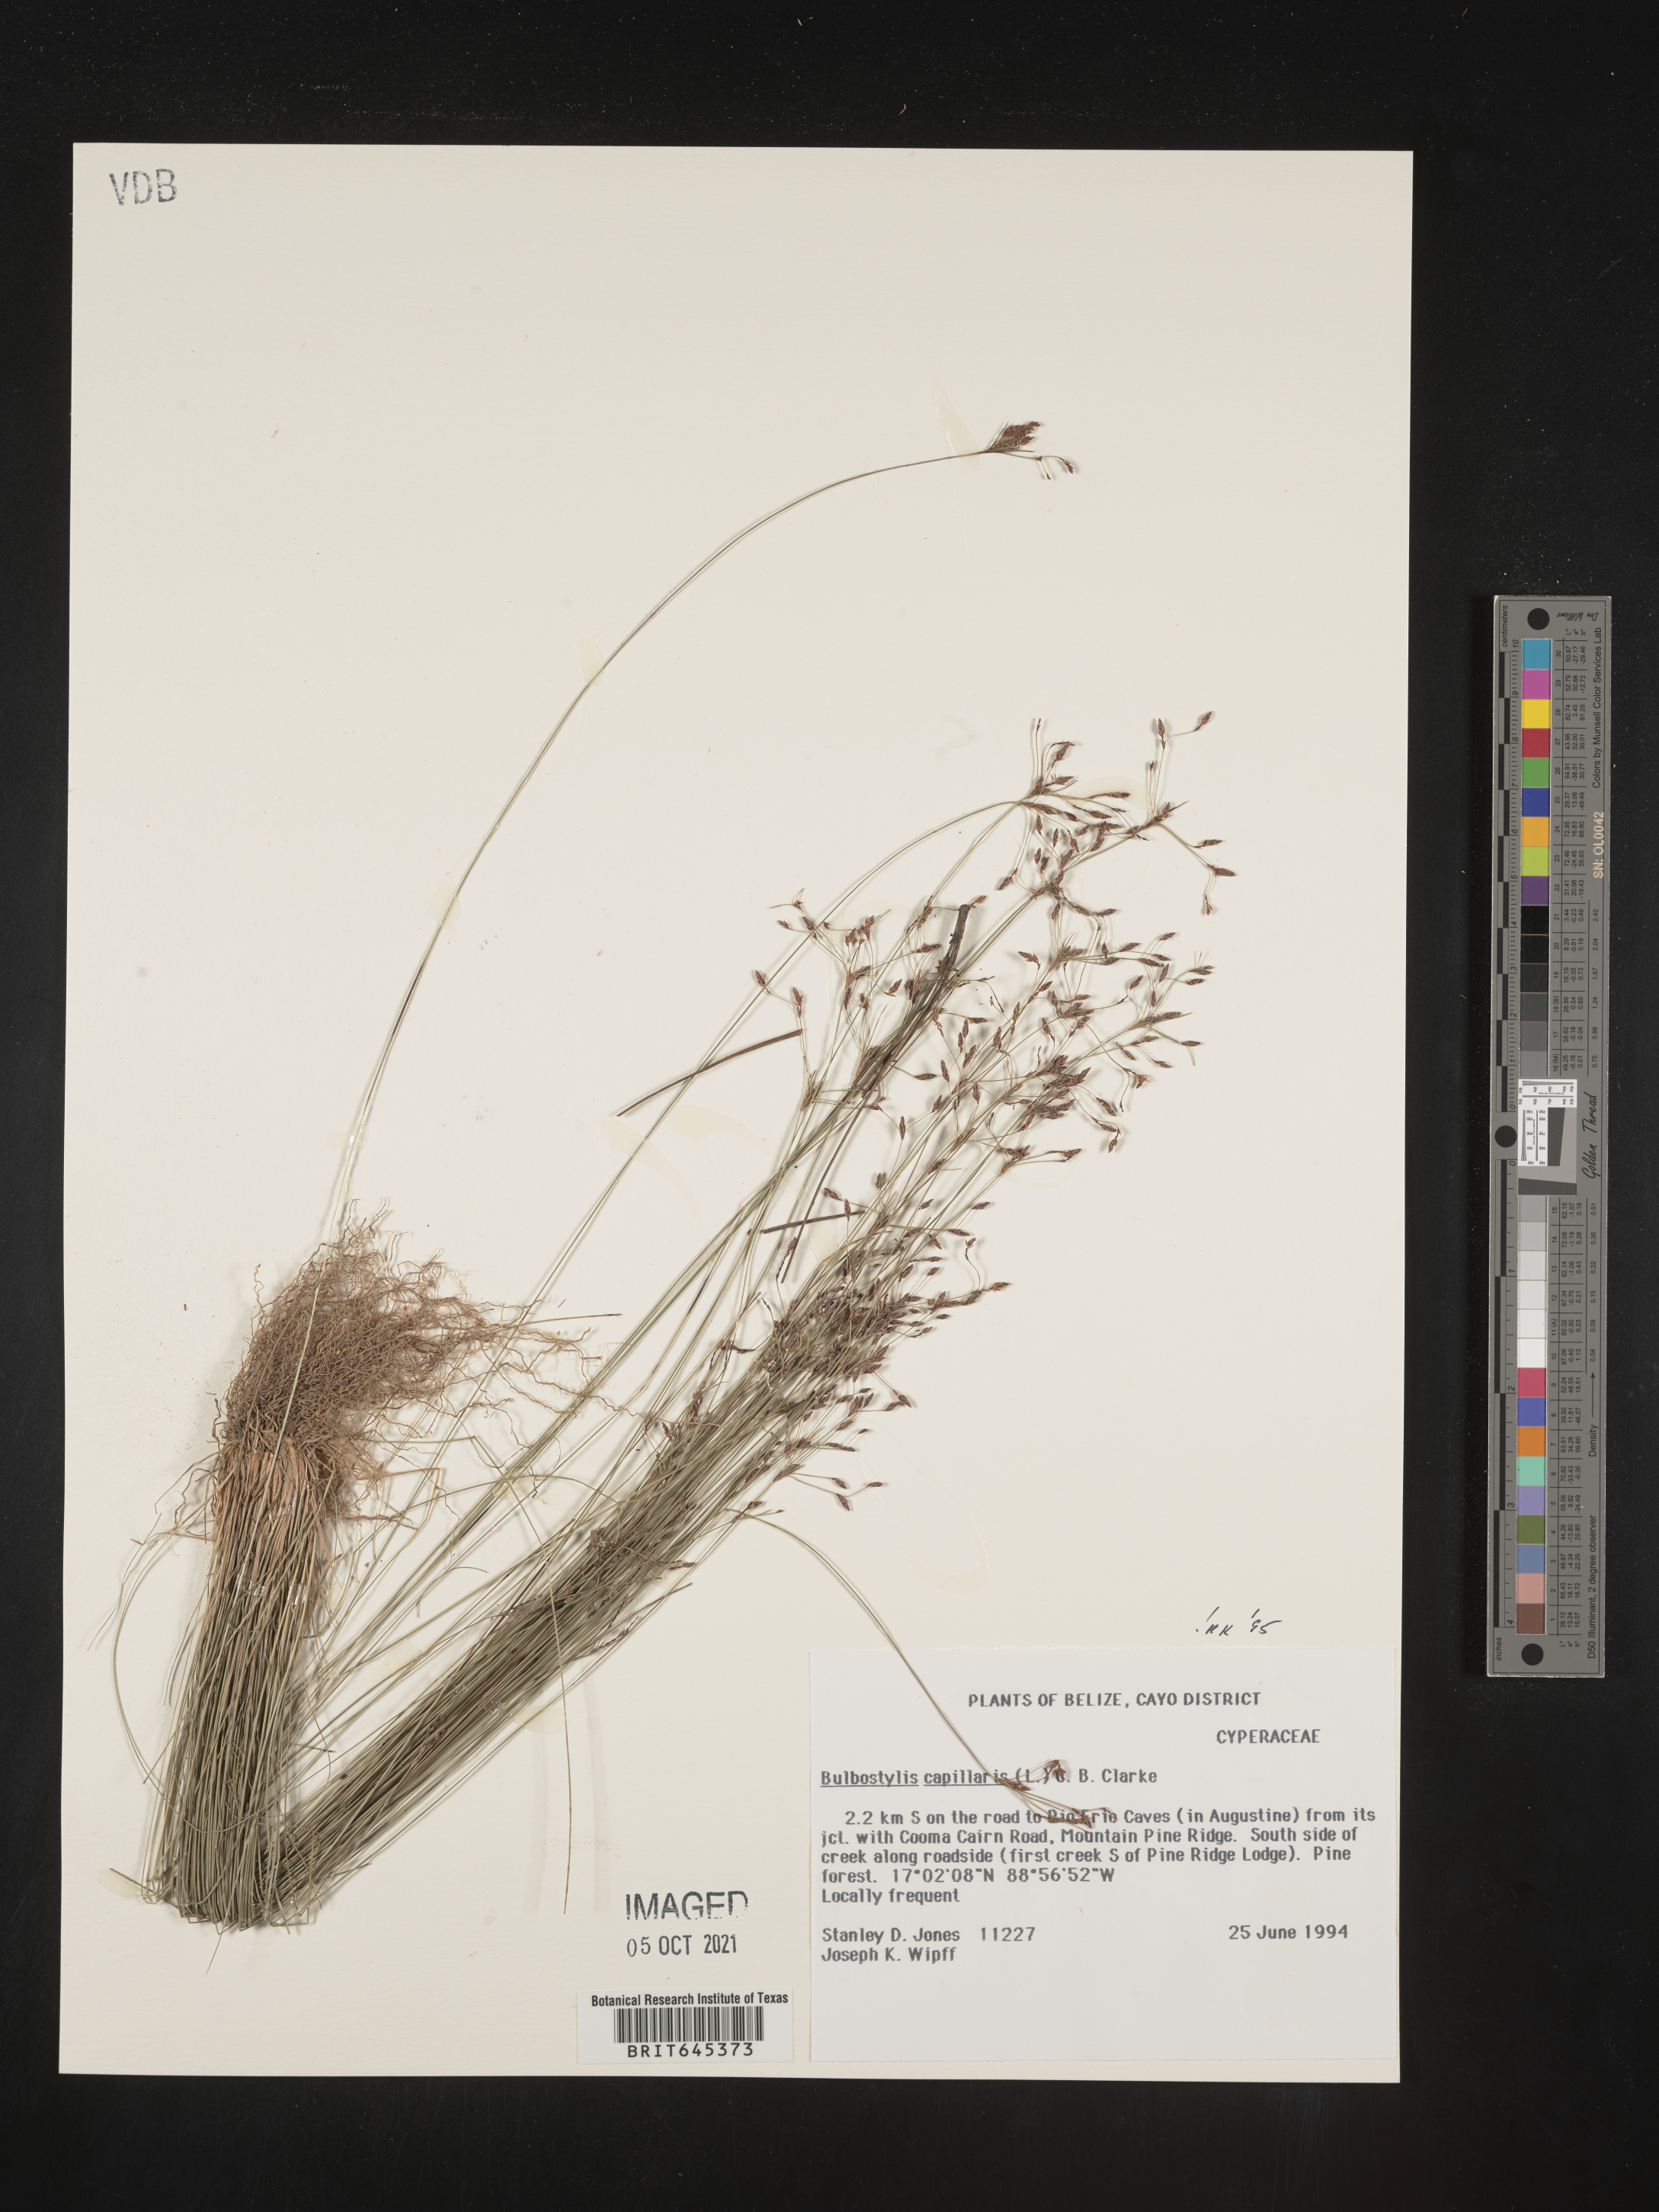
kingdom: Plantae
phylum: Tracheophyta
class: Liliopsida
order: Poales
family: Cyperaceae
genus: Bulbostylis
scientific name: Bulbostylis capillaris
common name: Densetuft hairsedge
